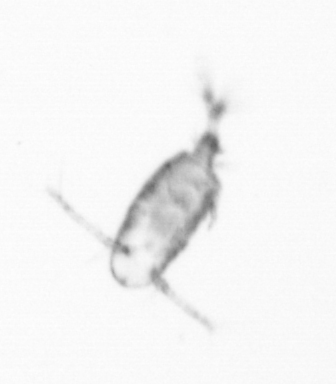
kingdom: Animalia
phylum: Arthropoda
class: Copepoda
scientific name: Copepoda
